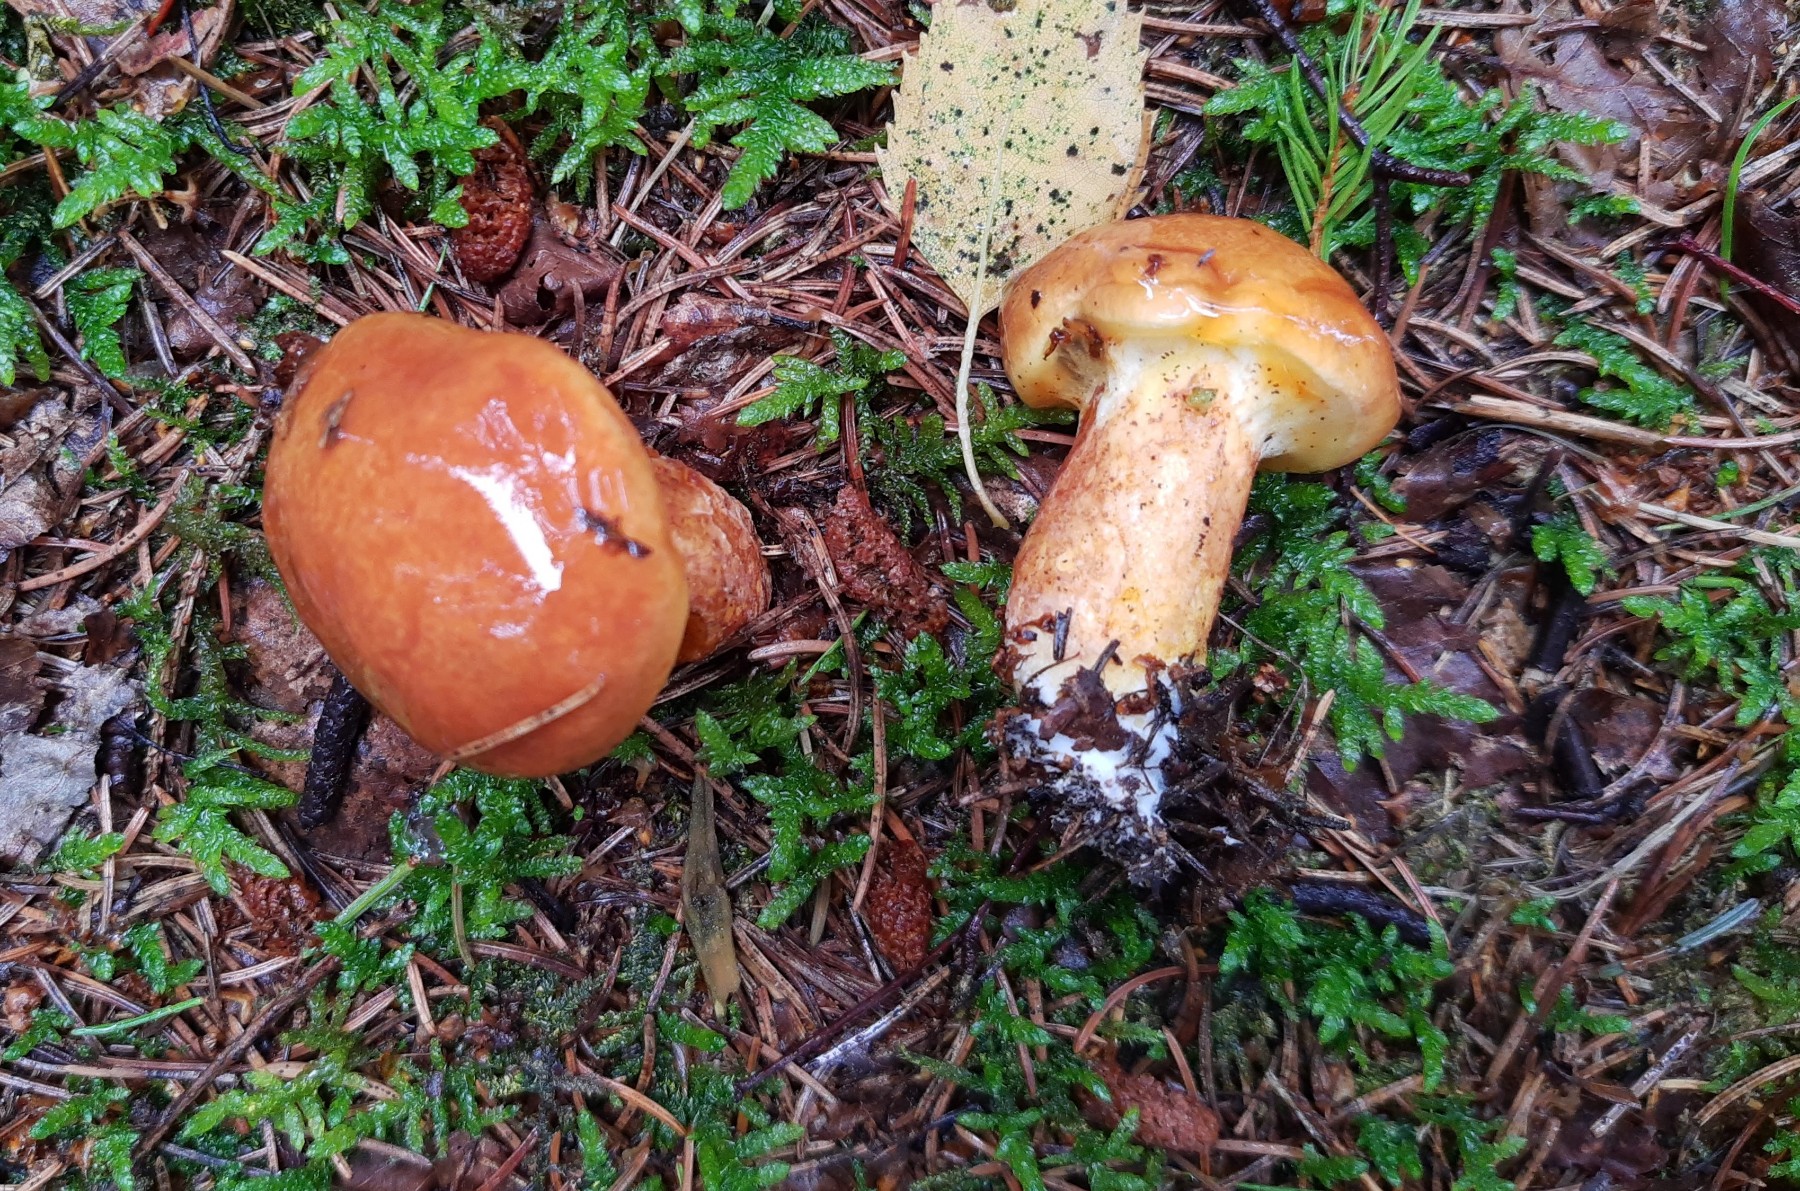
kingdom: Fungi
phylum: Basidiomycota
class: Agaricomycetes
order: Boletales
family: Suillaceae
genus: Suillus
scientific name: Suillus grevillei
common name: lærke-slimrørhat
